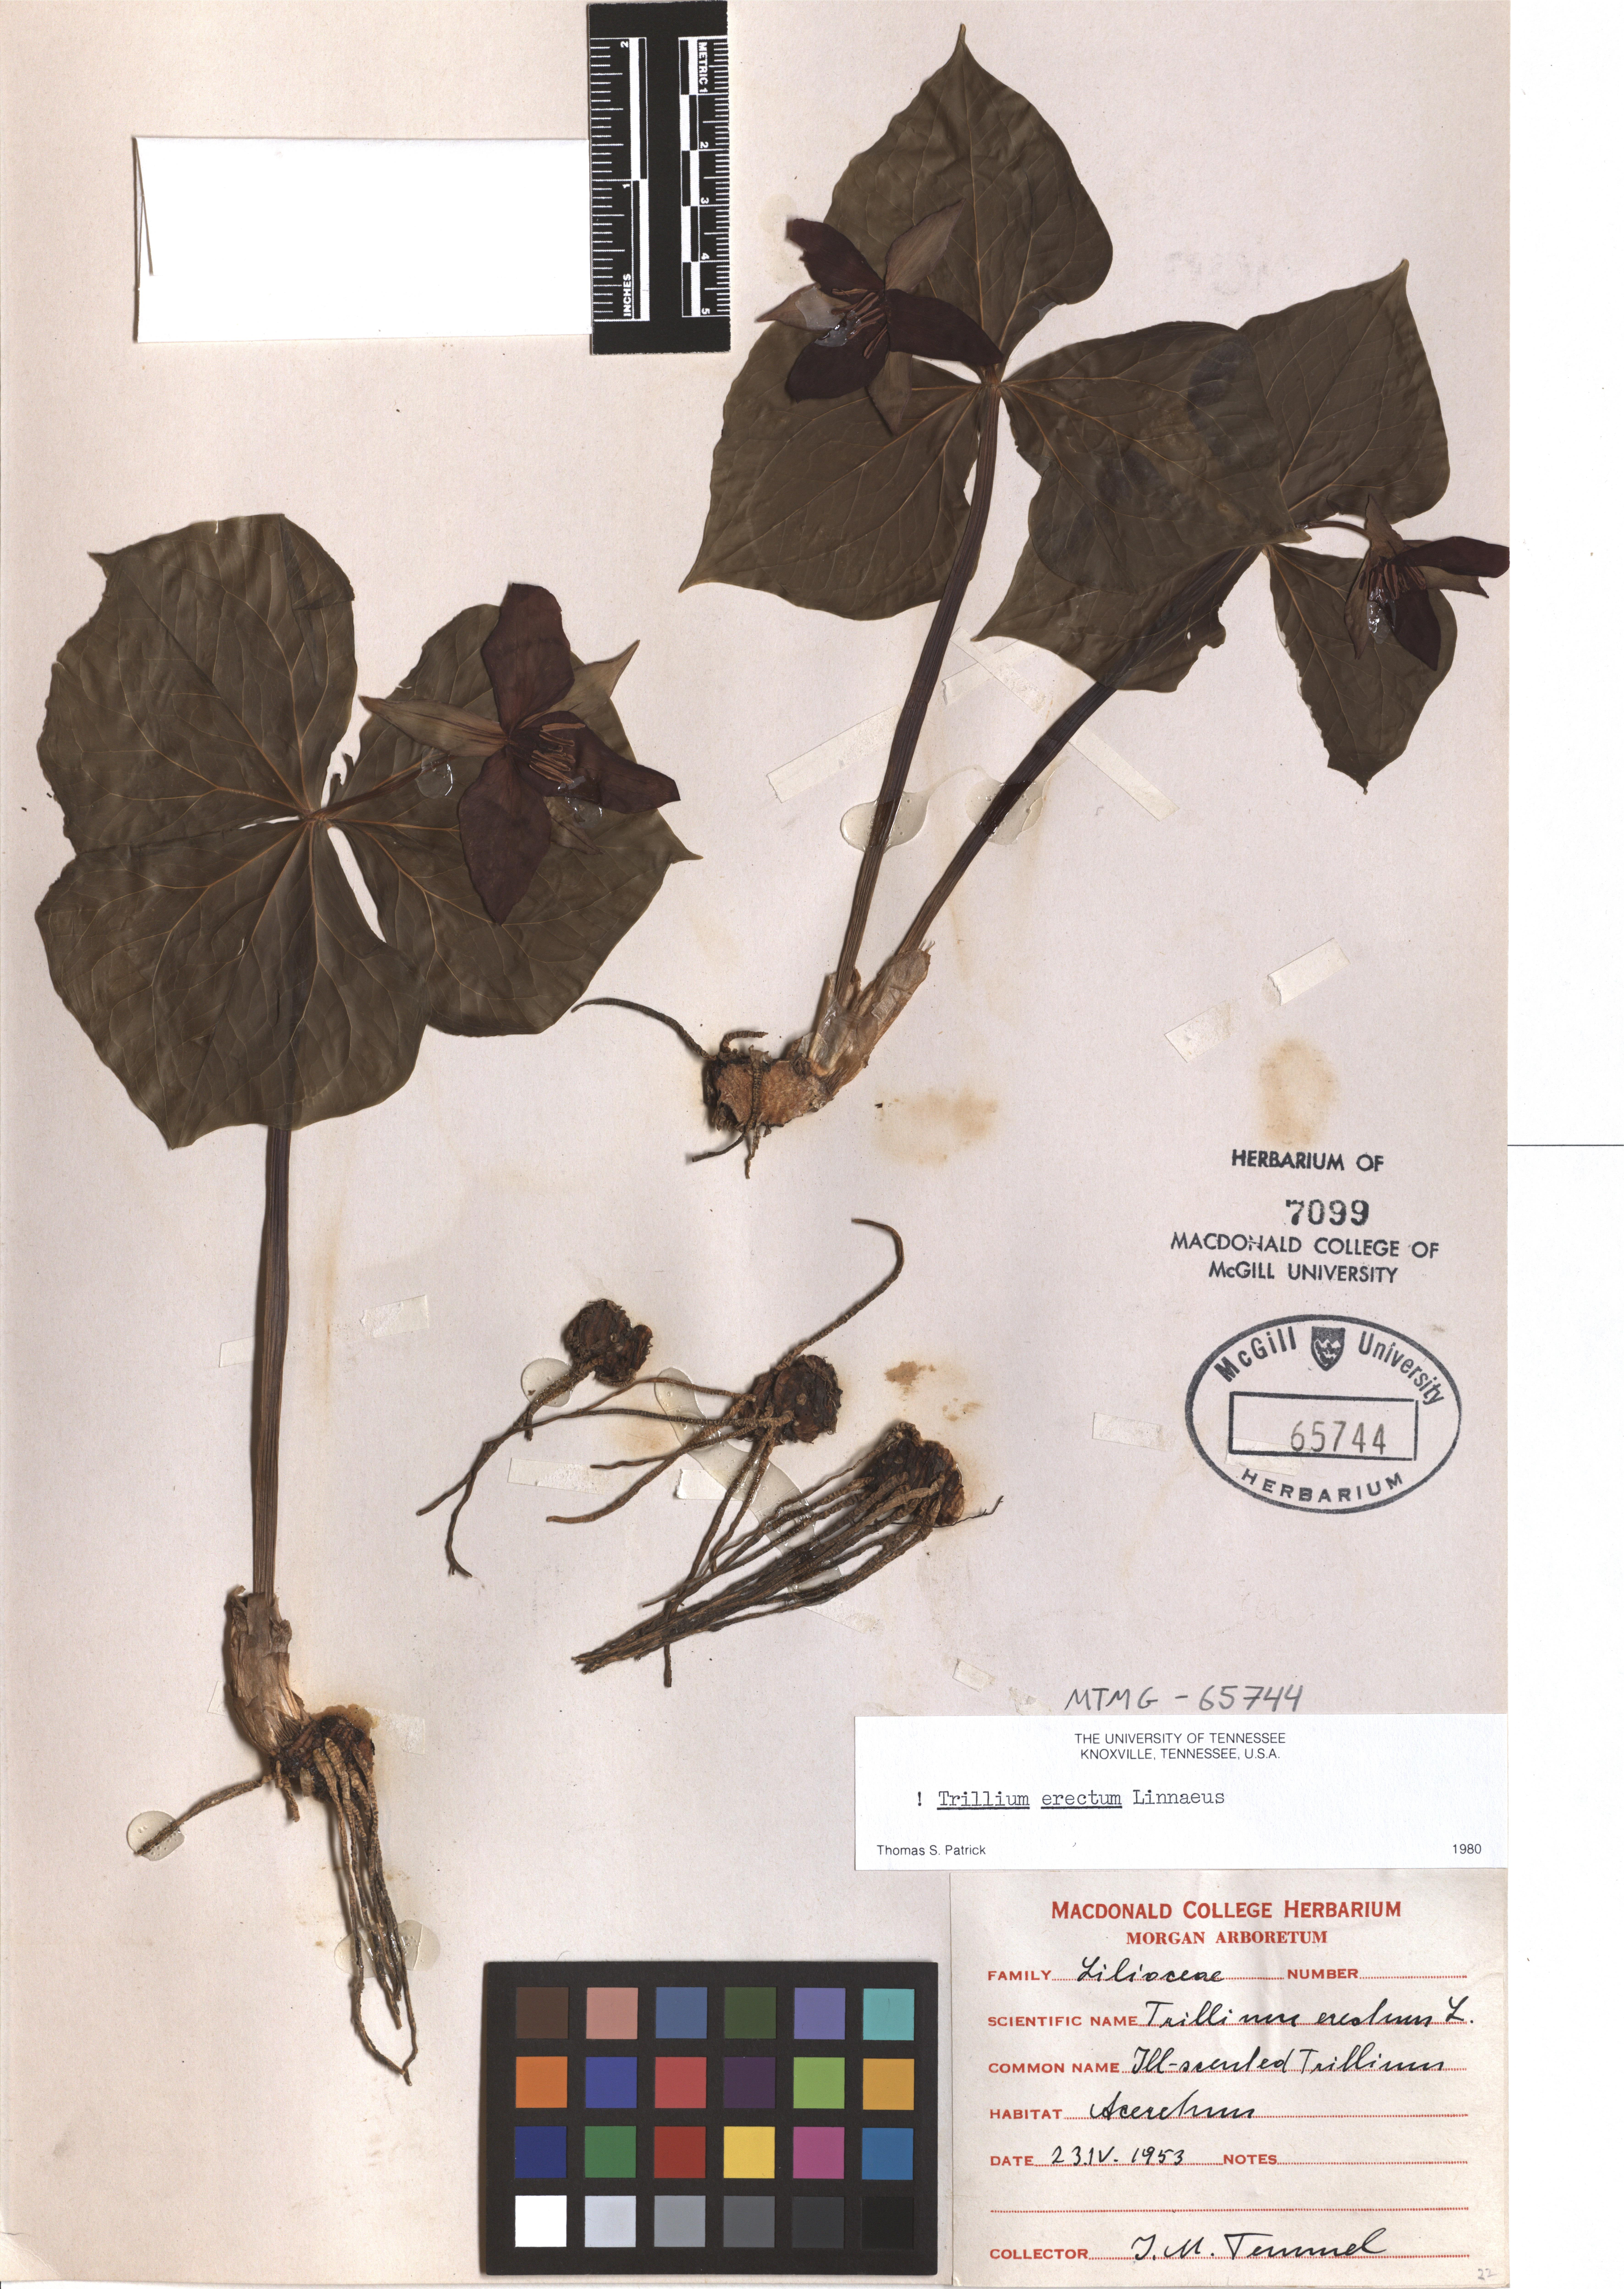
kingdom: Plantae
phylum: Tracheophyta
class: Liliopsida
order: Liliales
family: Melanthiaceae
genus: Trillium
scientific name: Trillium erectum
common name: Purple trillium
